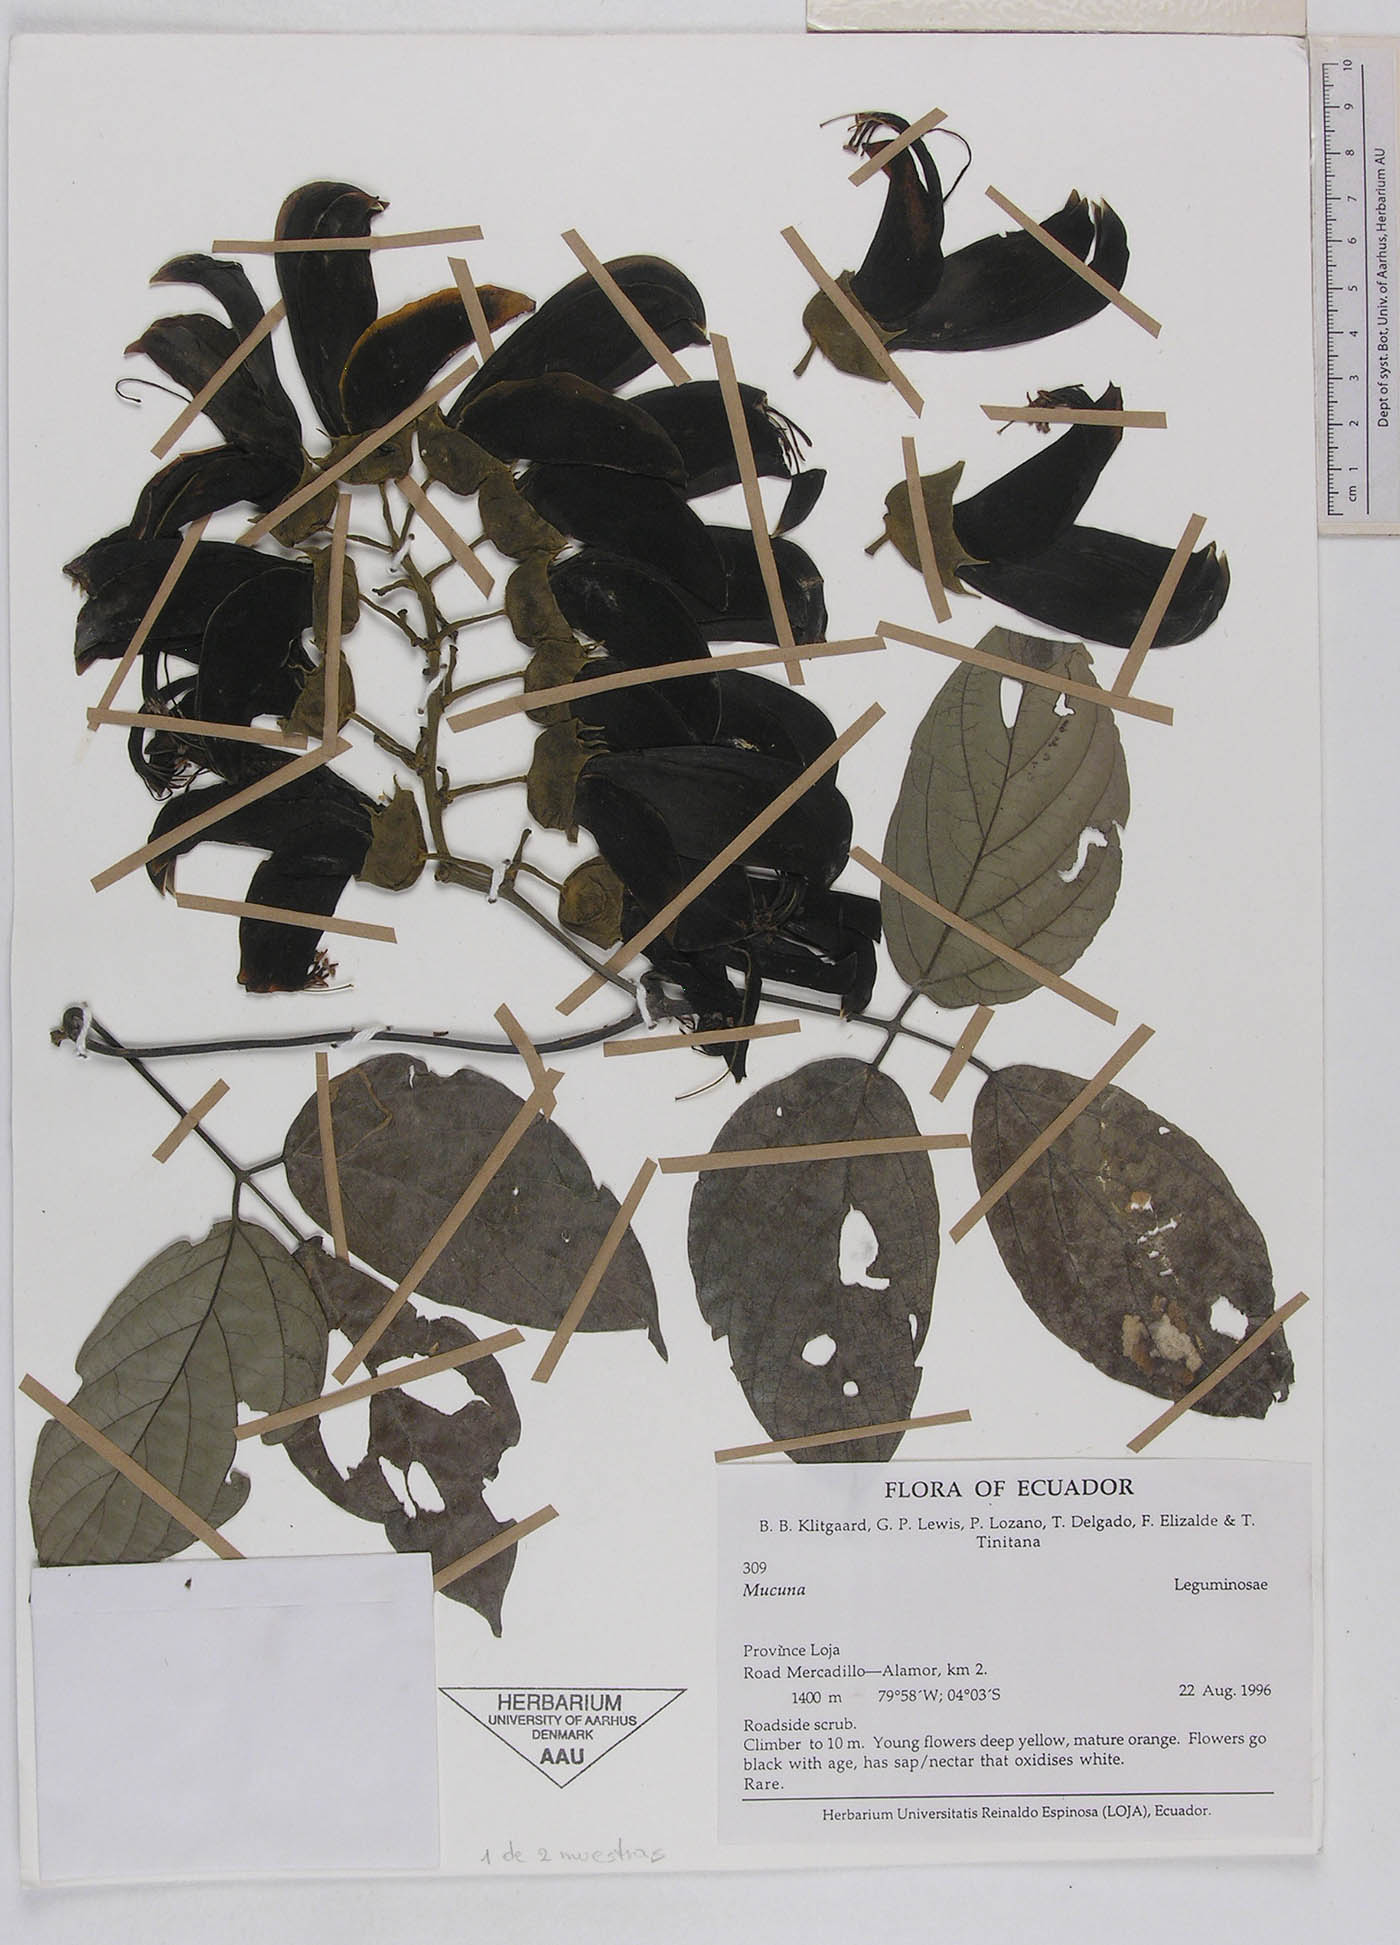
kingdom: Plantae
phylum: Tracheophyta
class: Magnoliopsida
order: Fabales
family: Fabaceae
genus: Mucuna
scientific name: Mucuna rostrata
